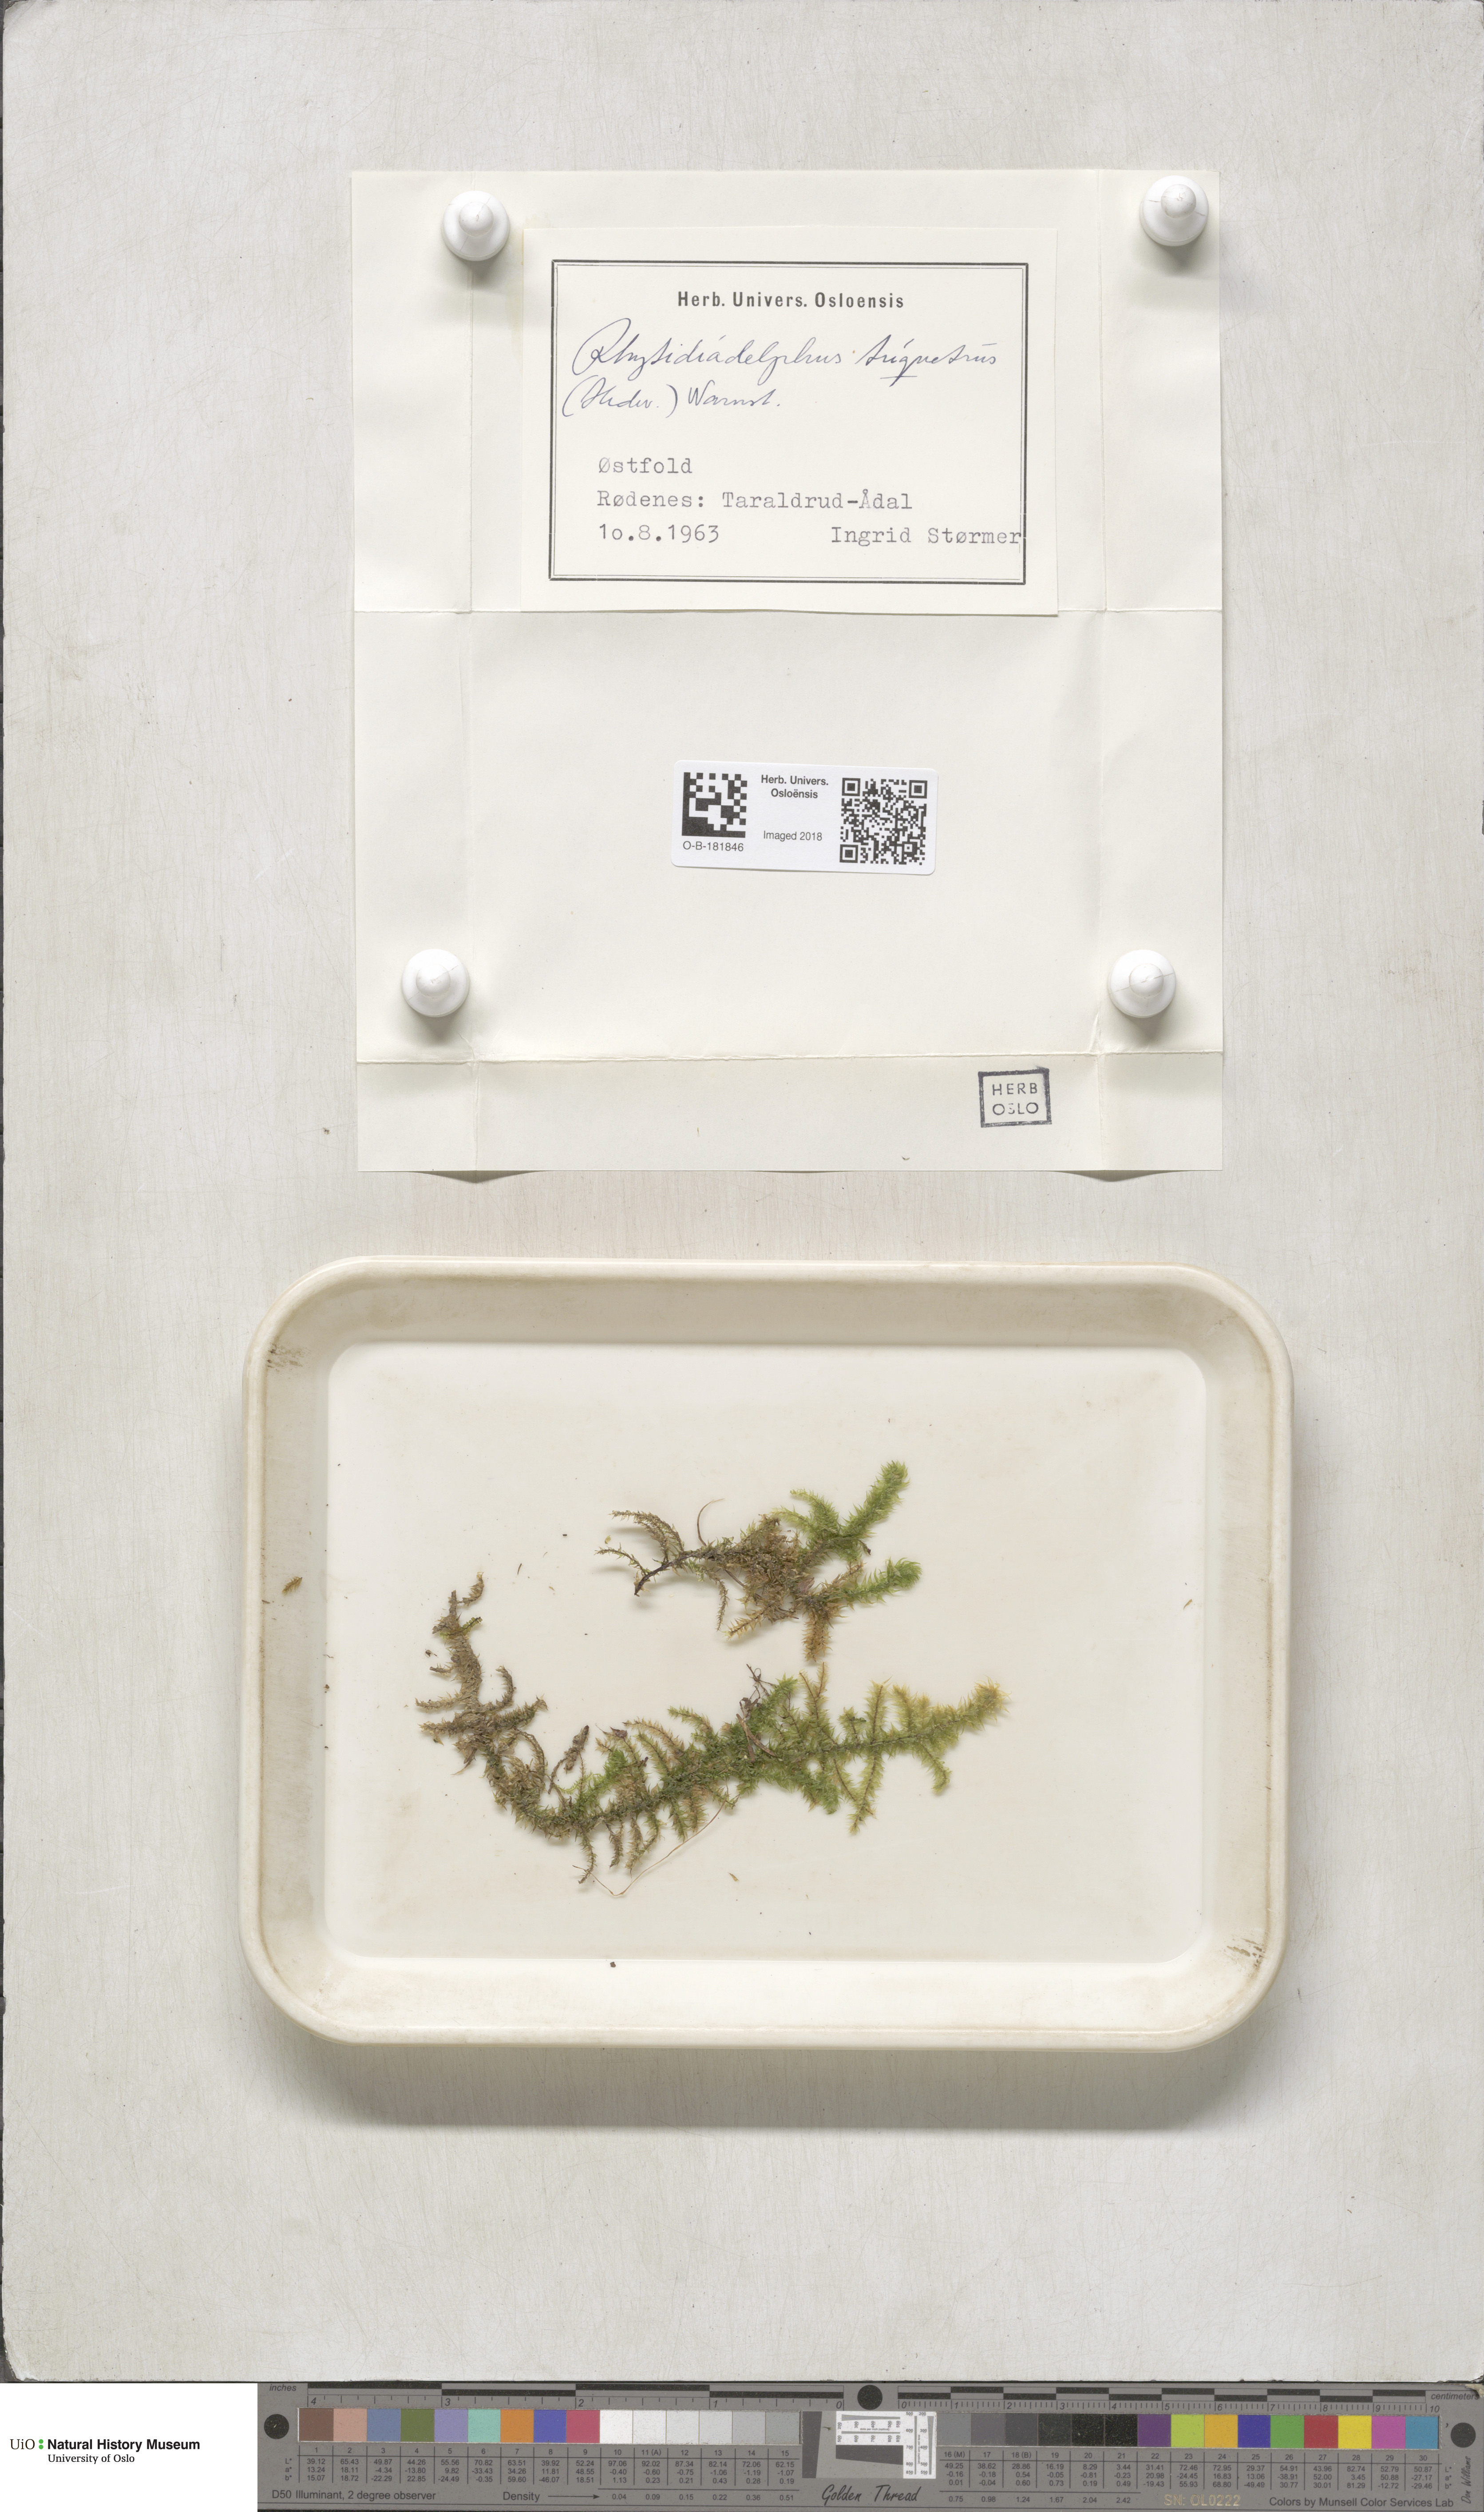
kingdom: Plantae
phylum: Bryophyta
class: Bryopsida
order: Hypnales
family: Hylocomiaceae
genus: Hylocomiadelphus
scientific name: Hylocomiadelphus triquetrus
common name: Rough goose neck moss
